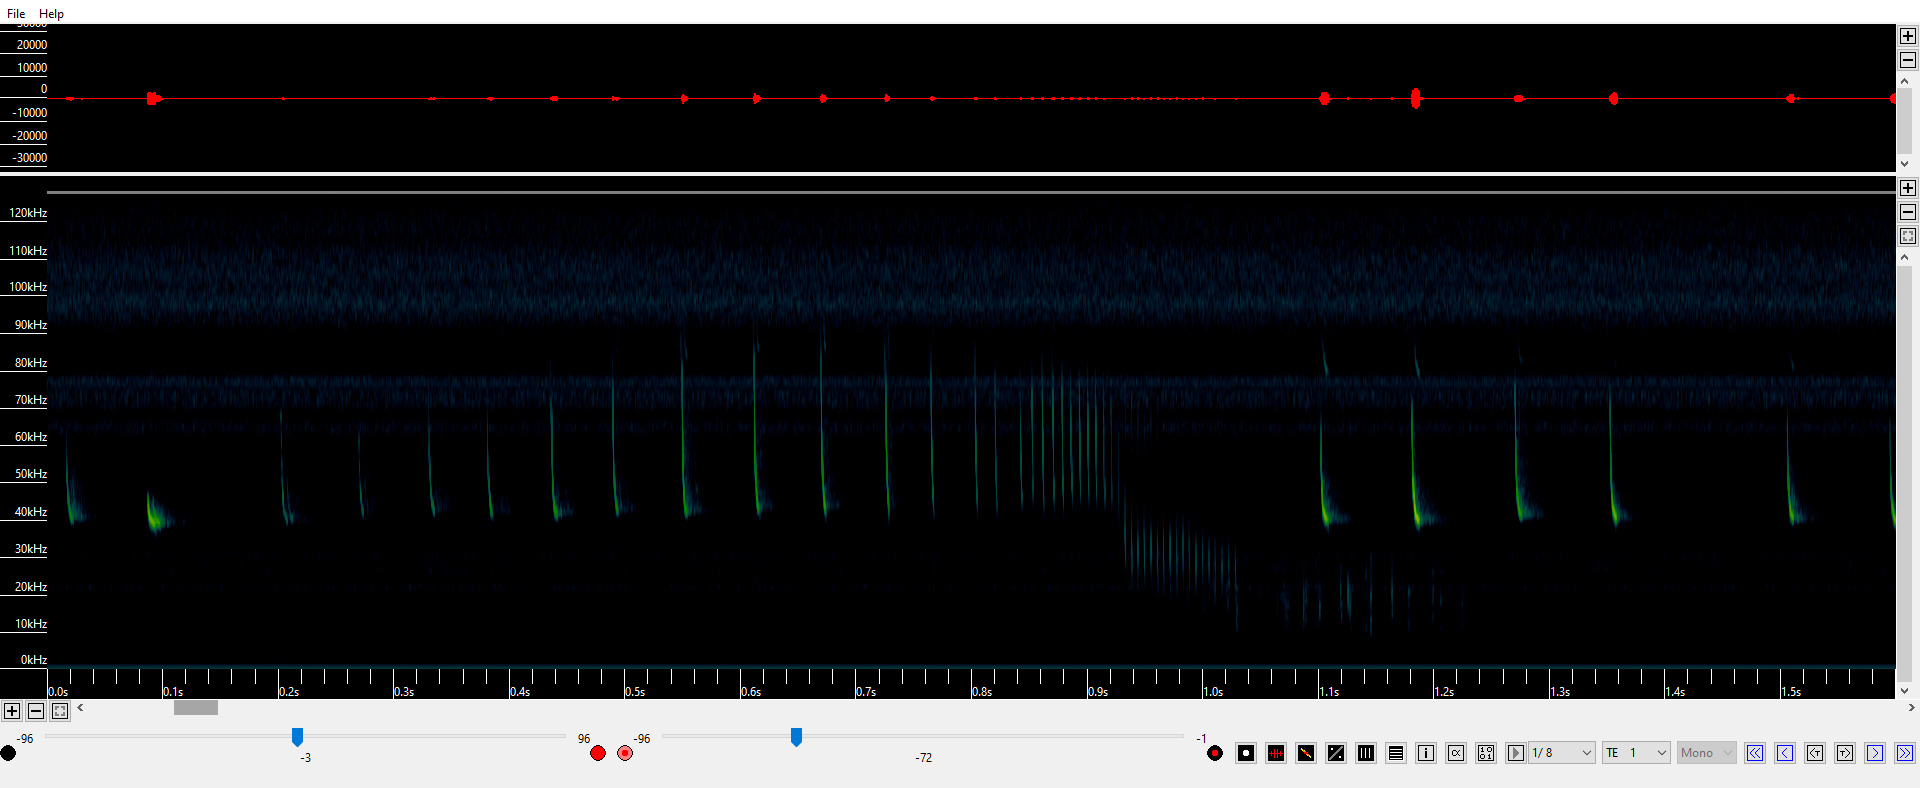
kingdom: Animalia
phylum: Chordata
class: Mammalia
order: Chiroptera
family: Vespertilionidae
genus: Pipistrellus
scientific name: Pipistrellus nathusii
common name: Troldflagermus
